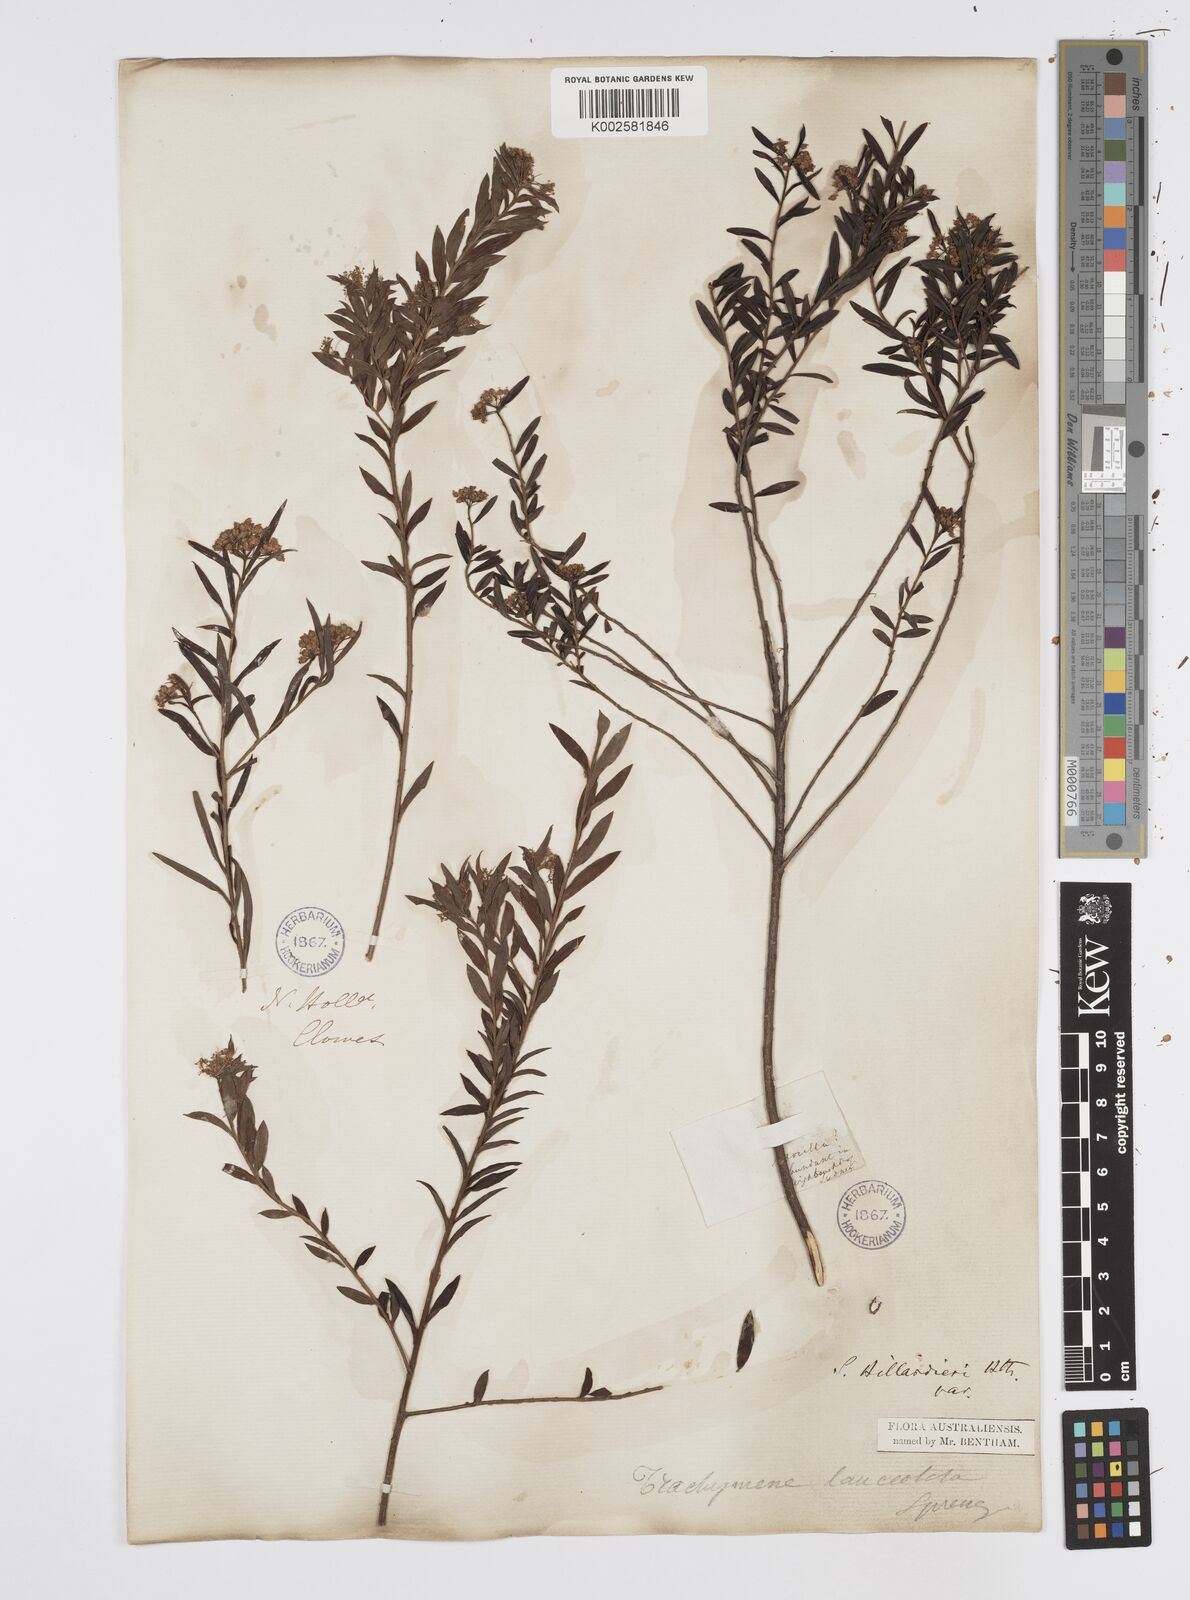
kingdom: Plantae
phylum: Tracheophyta
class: Magnoliopsida
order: Apiales
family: Apiaceae
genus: Platysace
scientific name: Platysace lanceolata
